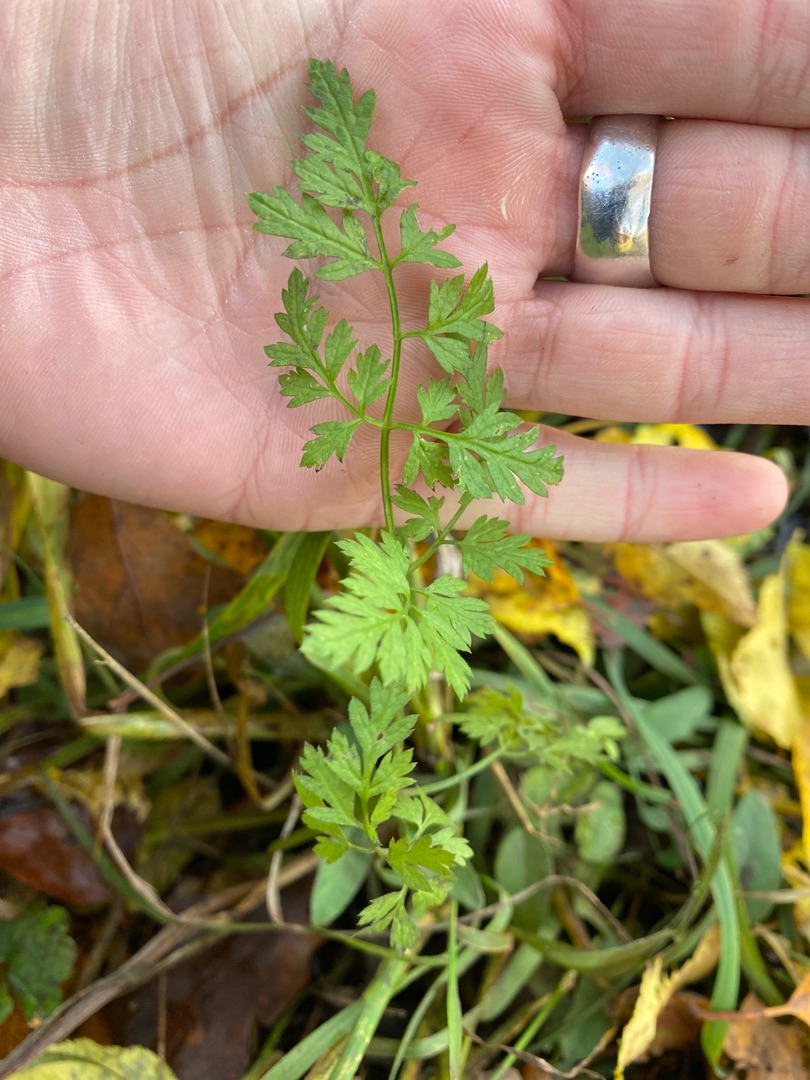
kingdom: Plantae
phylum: Tracheophyta
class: Magnoliopsida
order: Apiales
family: Apiaceae
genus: Anthriscus
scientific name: Anthriscus sylvestris
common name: Vild kørvel
